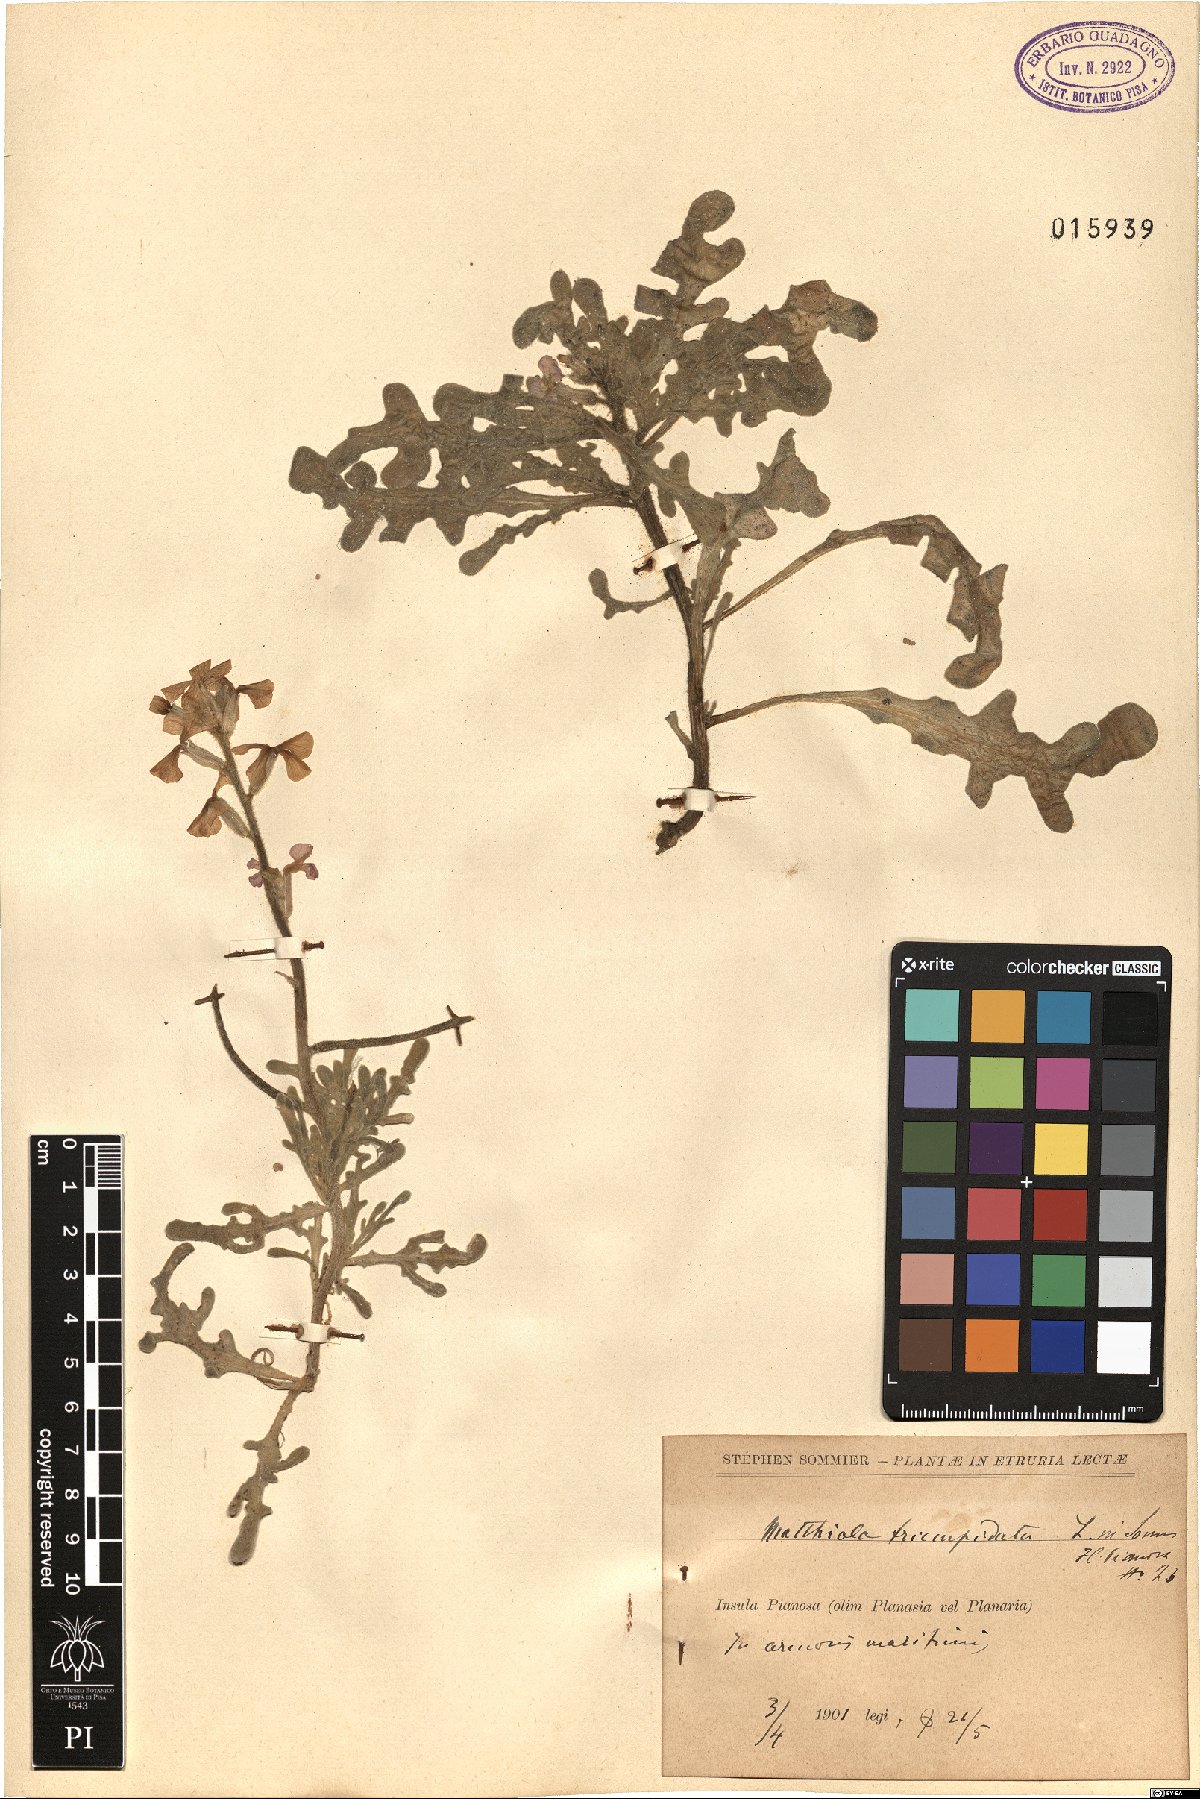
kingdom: Plantae
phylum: Tracheophyta
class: Magnoliopsida
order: Brassicales
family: Brassicaceae
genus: Matthiola
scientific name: Matthiola tricuspidata
